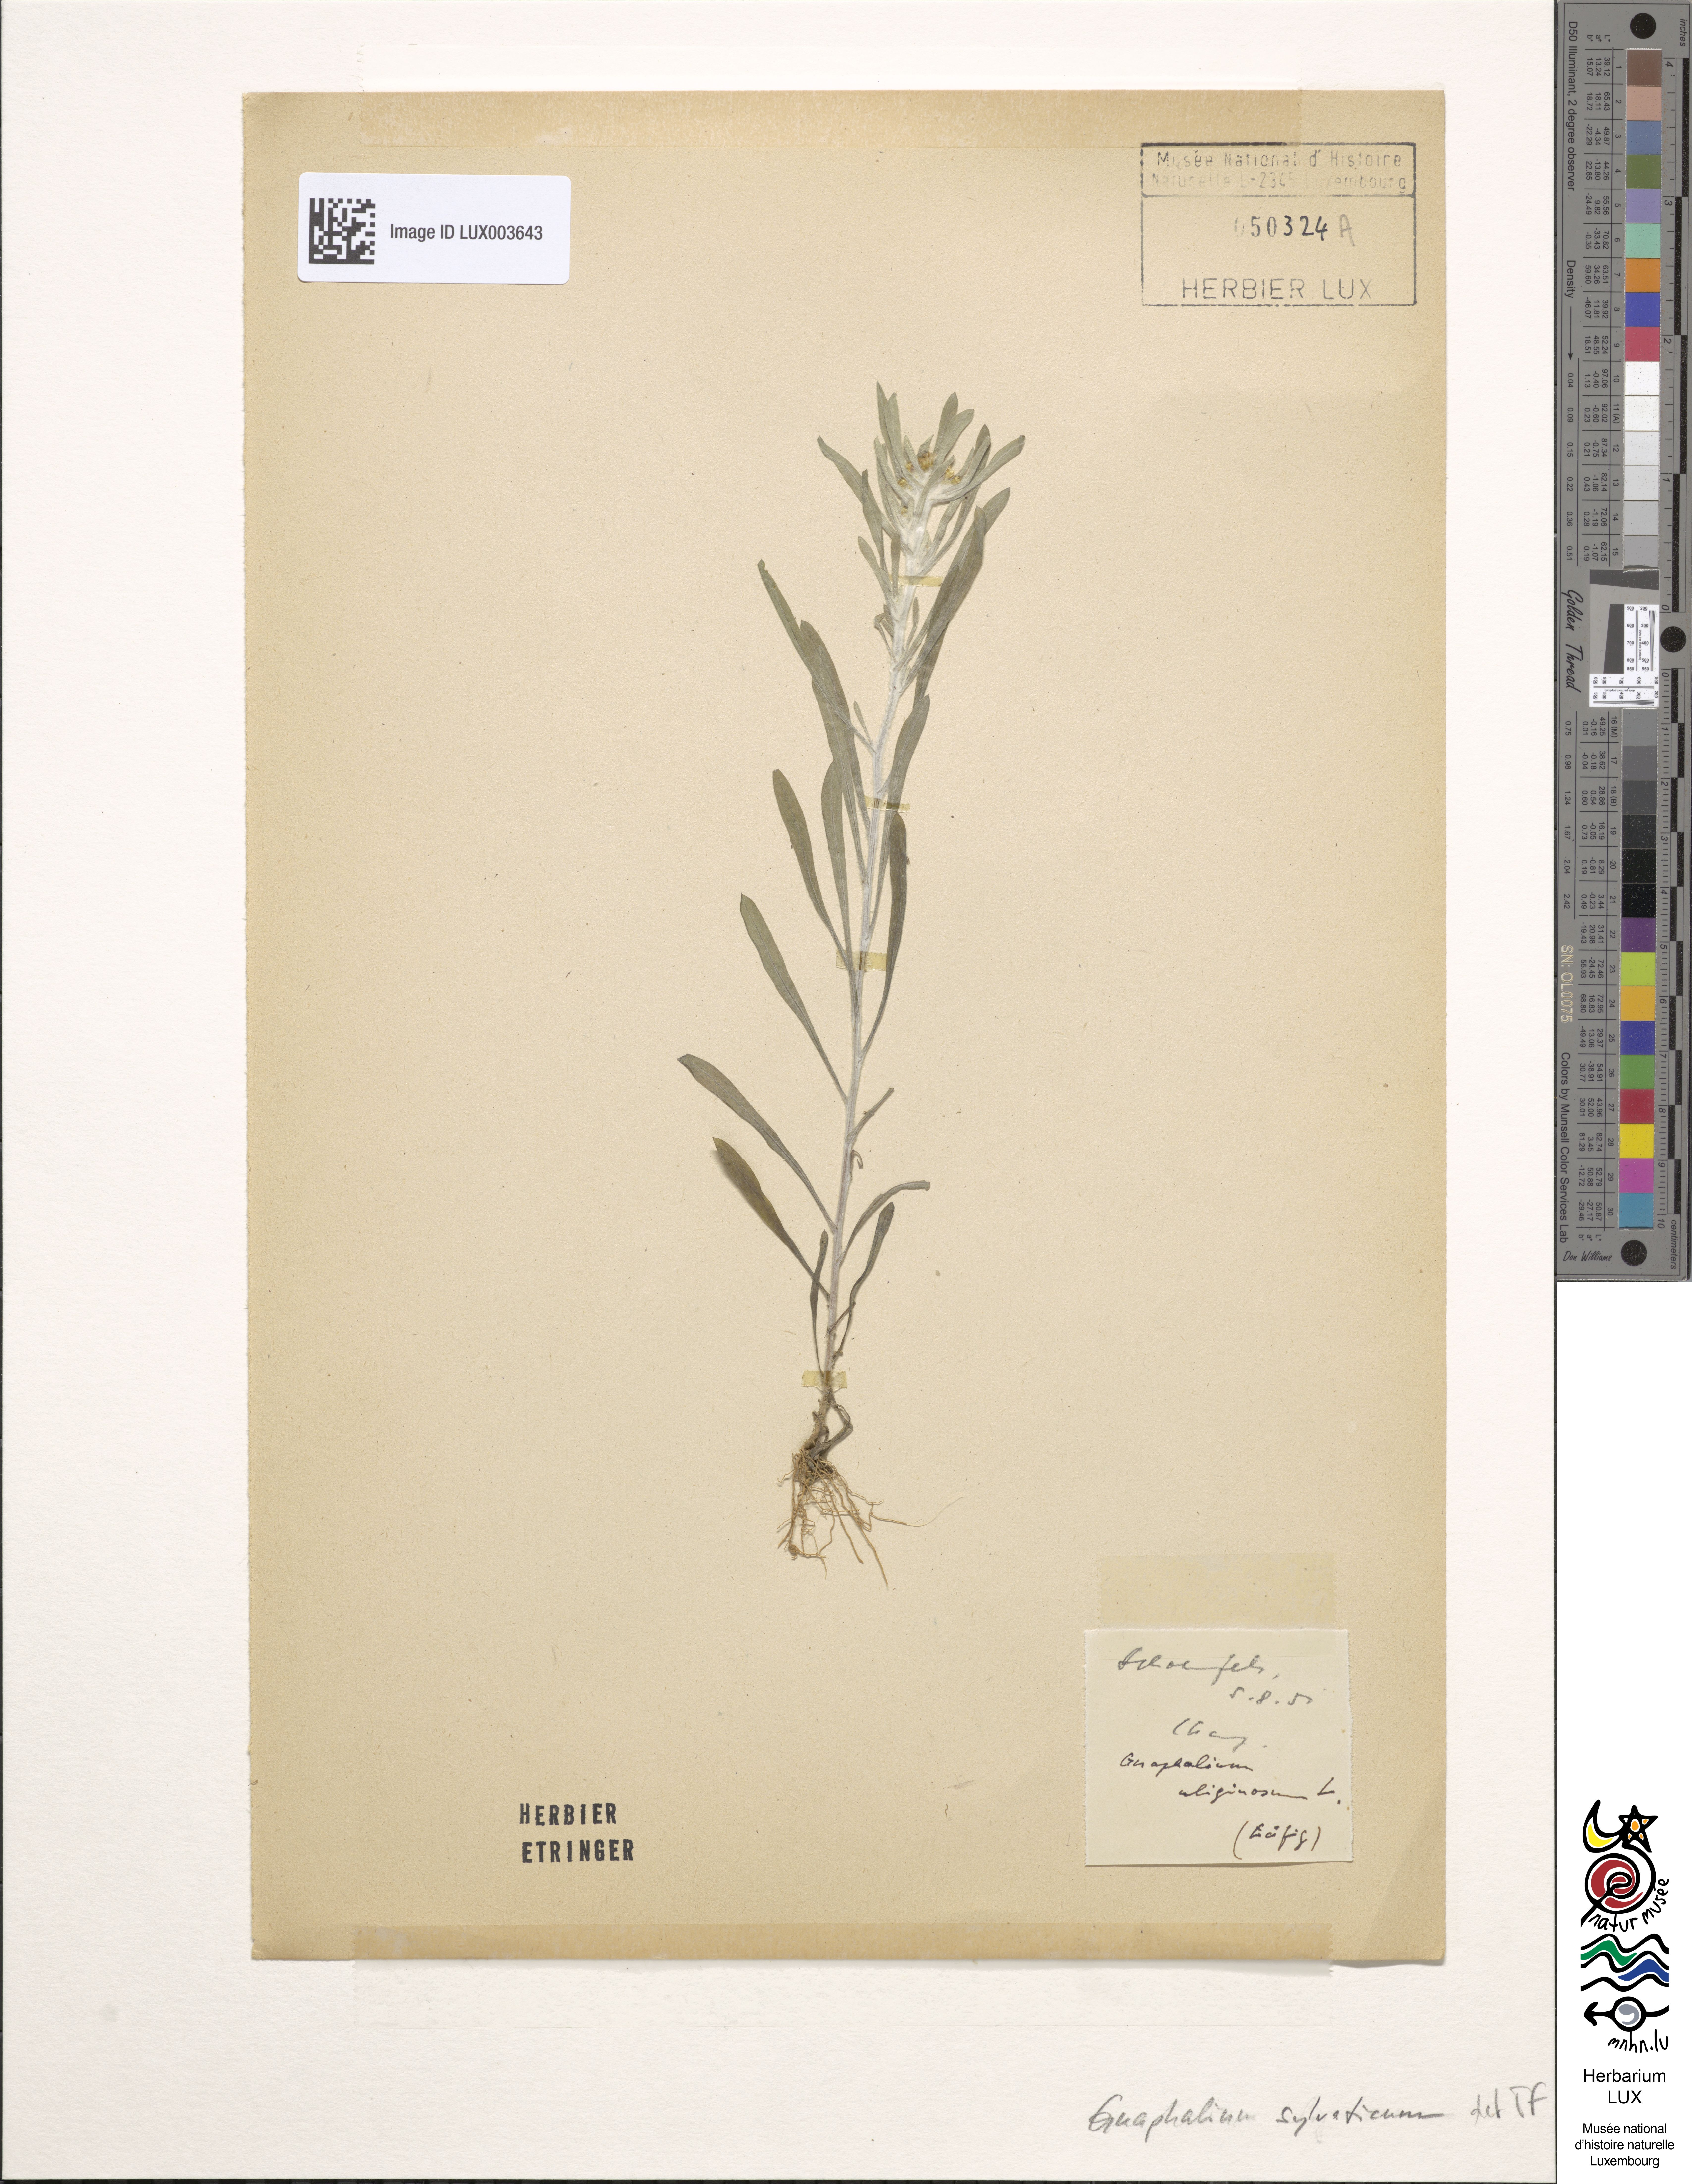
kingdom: Plantae
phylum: Tracheophyta
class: Magnoliopsida
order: Asterales
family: Asteraceae
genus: Omalotheca
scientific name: Omalotheca sylvatica
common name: Heath cudweed
